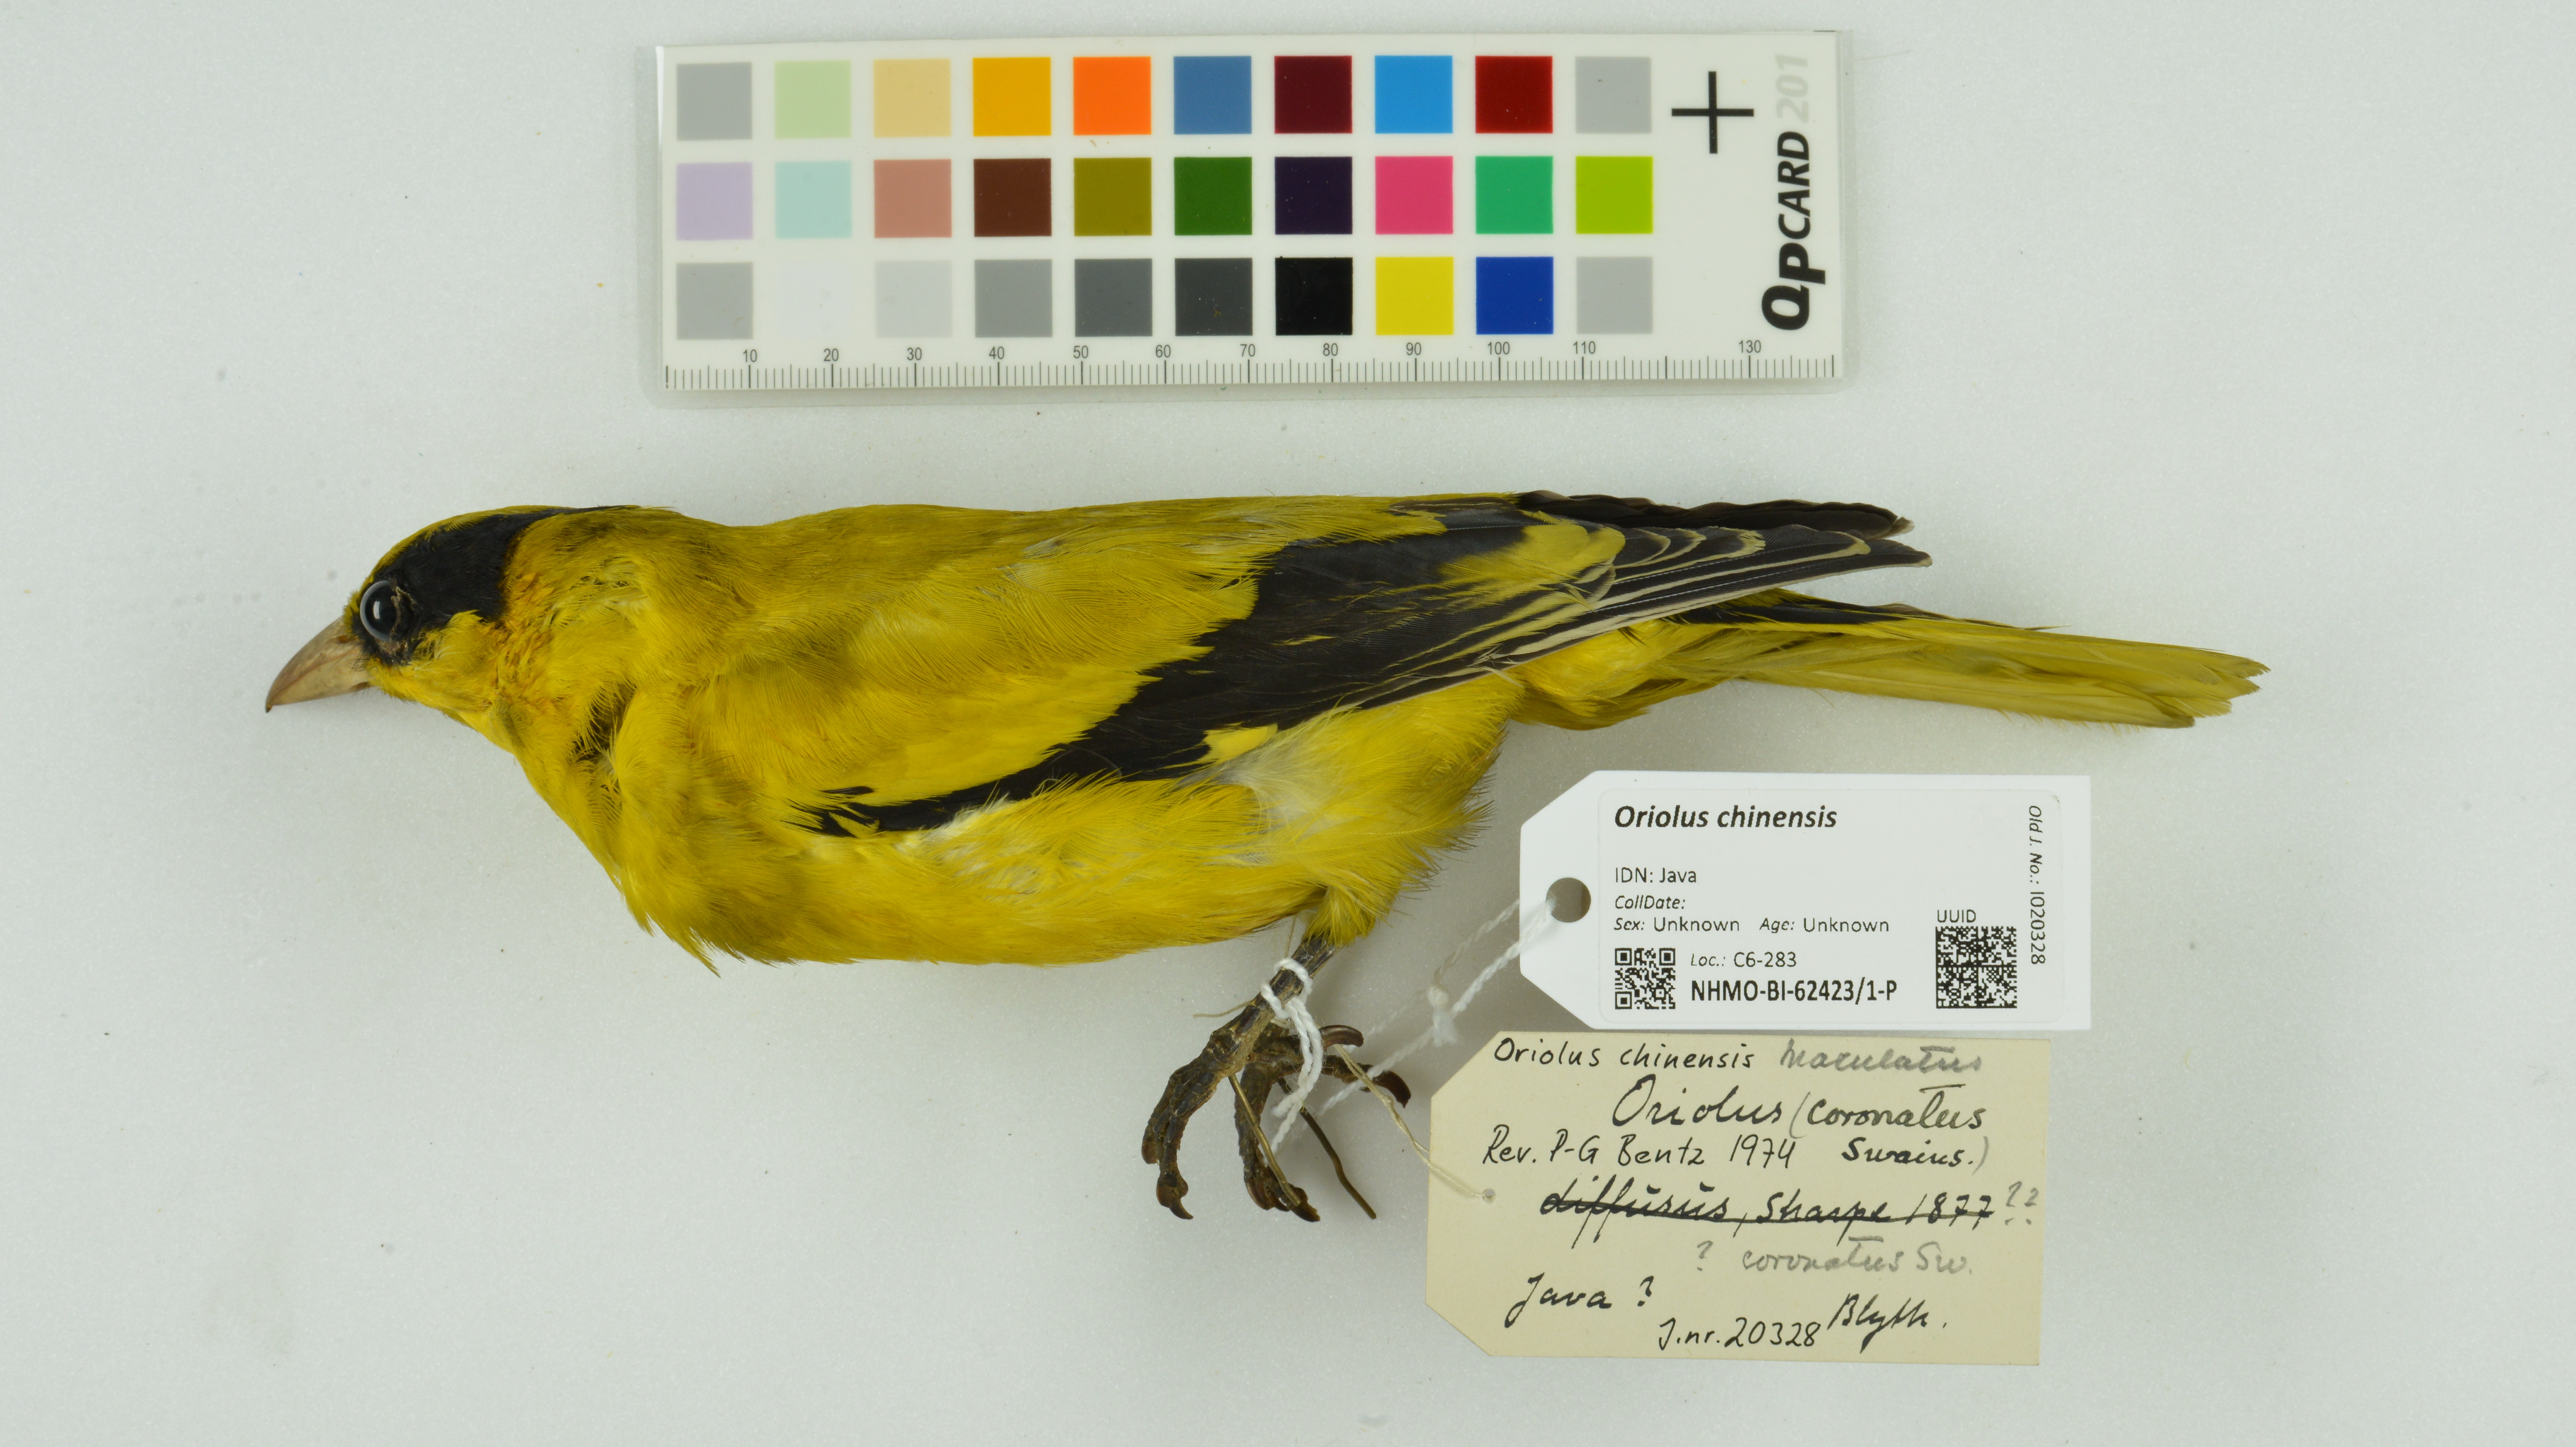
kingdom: Animalia
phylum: Chordata
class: Aves
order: Passeriformes
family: Oriolidae
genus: Oriolus
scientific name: Oriolus chinensis
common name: Black-naped oriole
